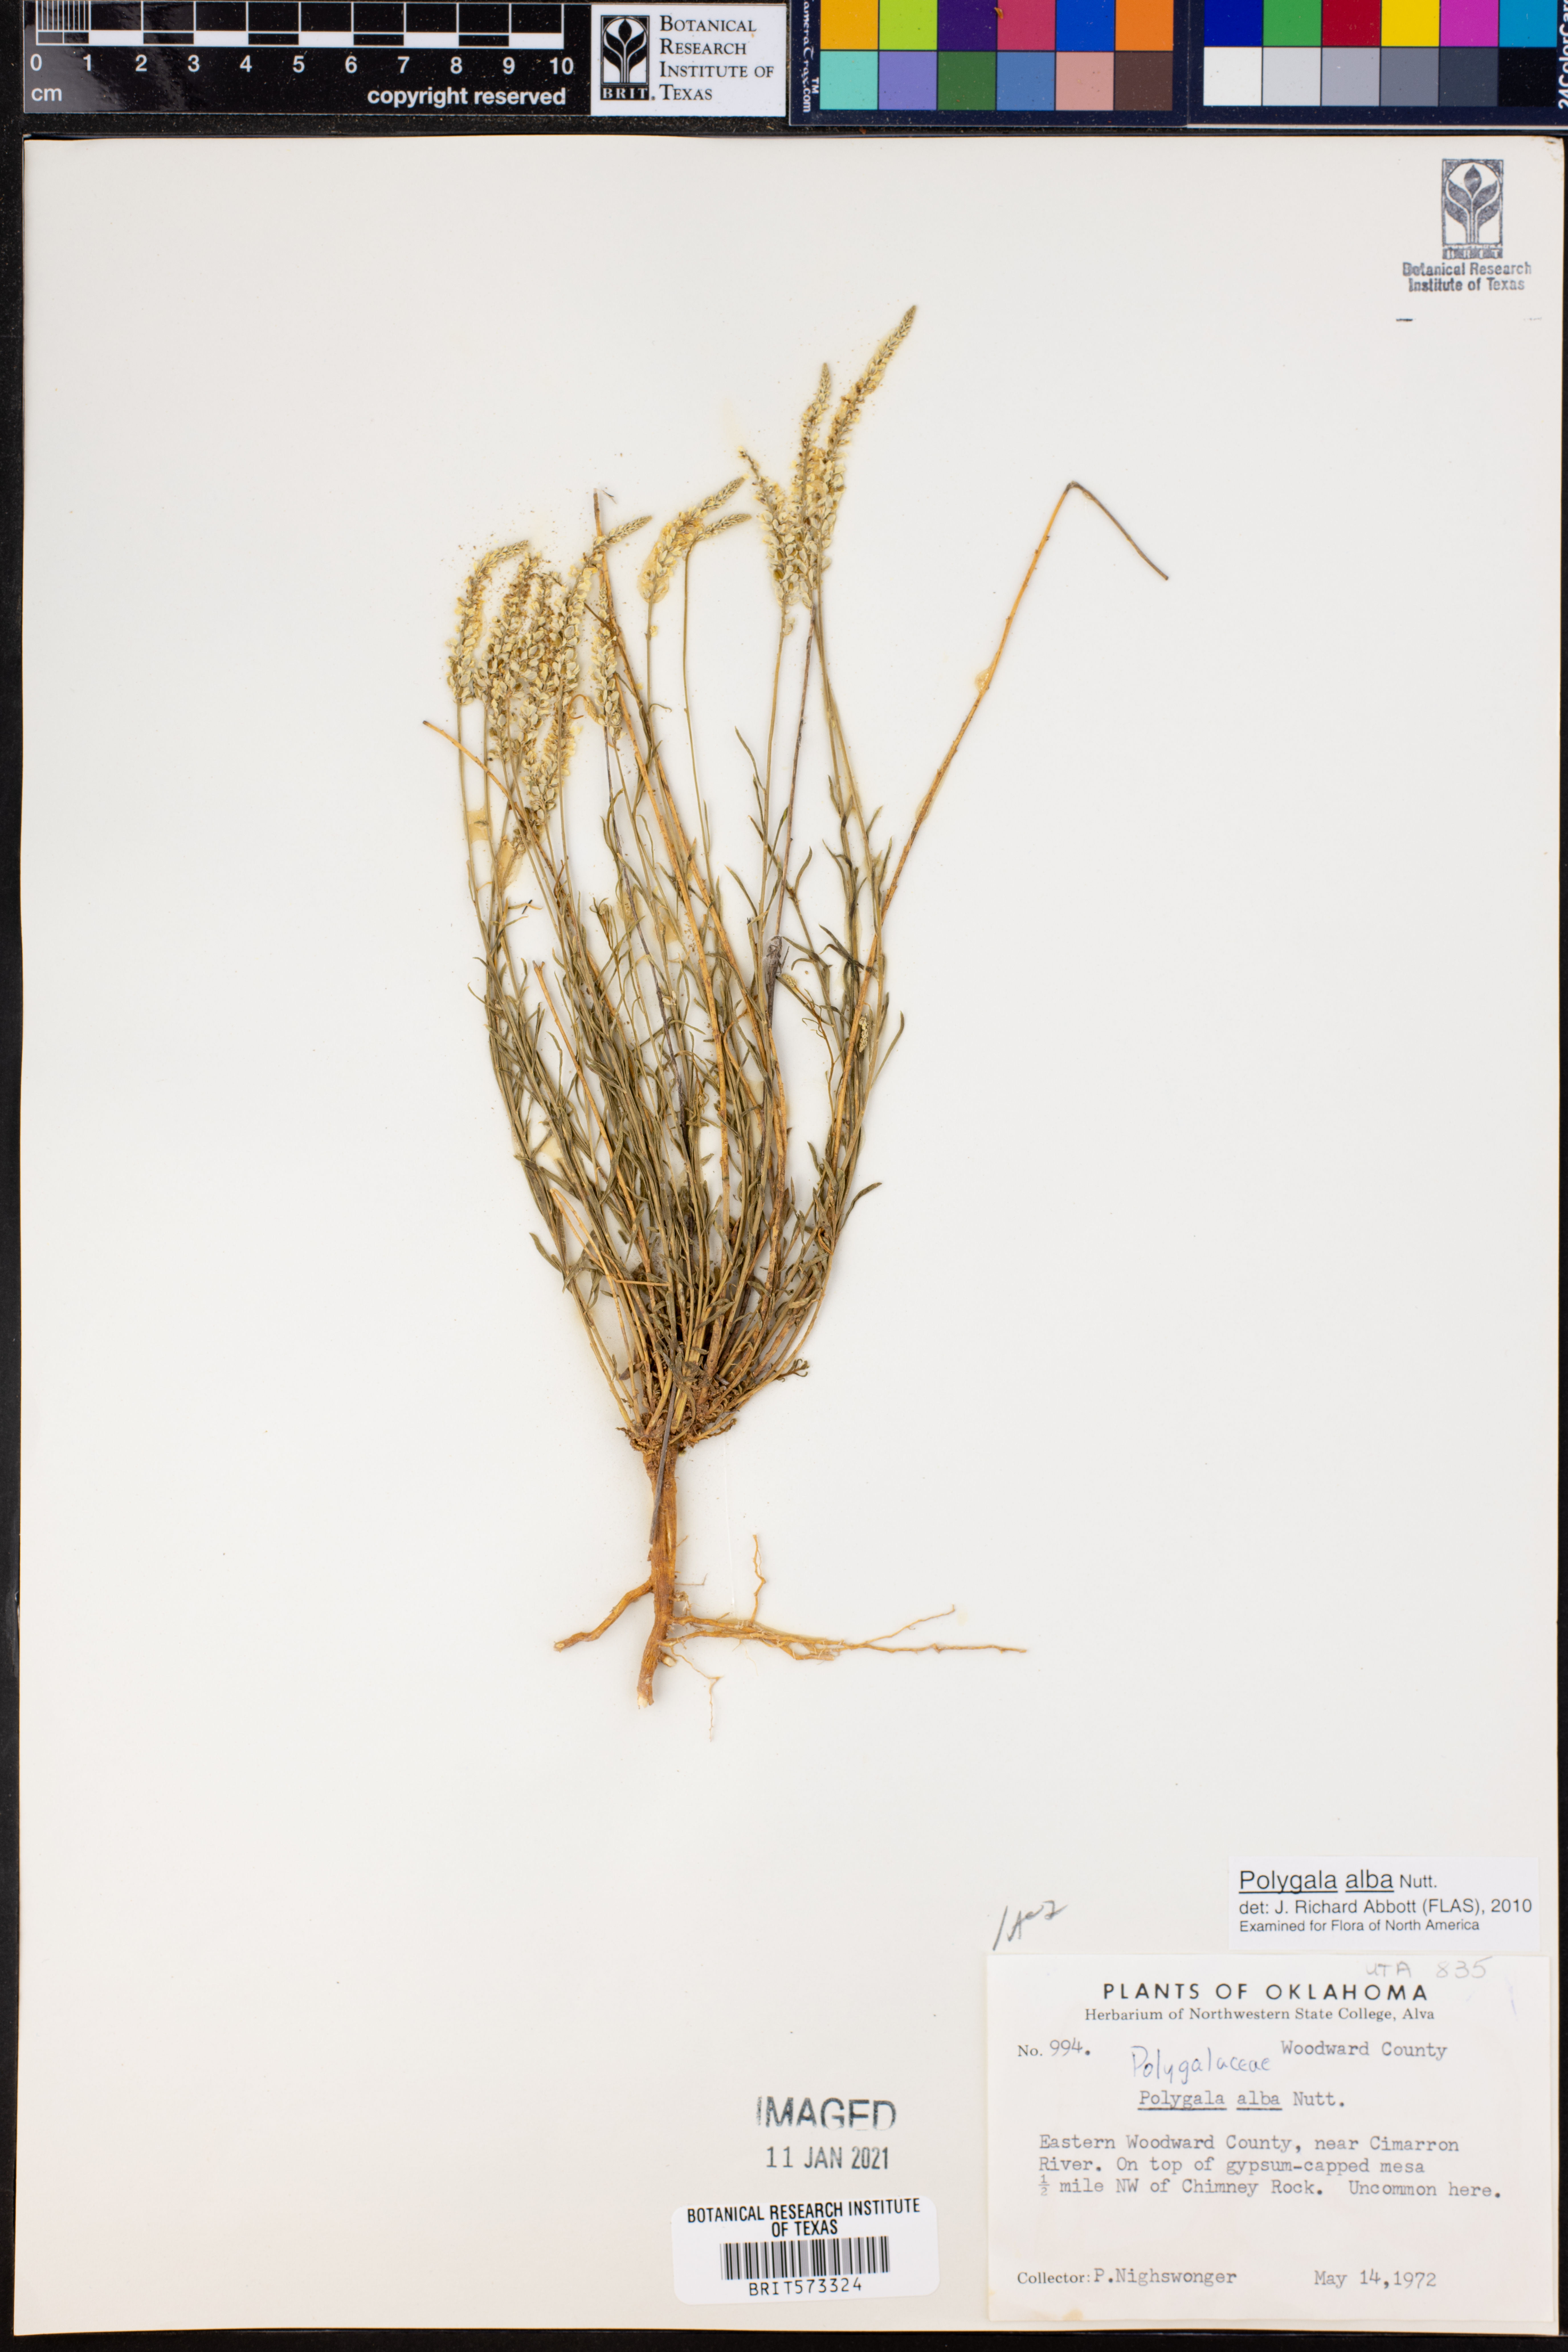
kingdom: Plantae
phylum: Tracheophyta
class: Magnoliopsida
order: Fabales
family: Polygalaceae
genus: Polygala
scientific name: Polygala alba
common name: White milkwort
